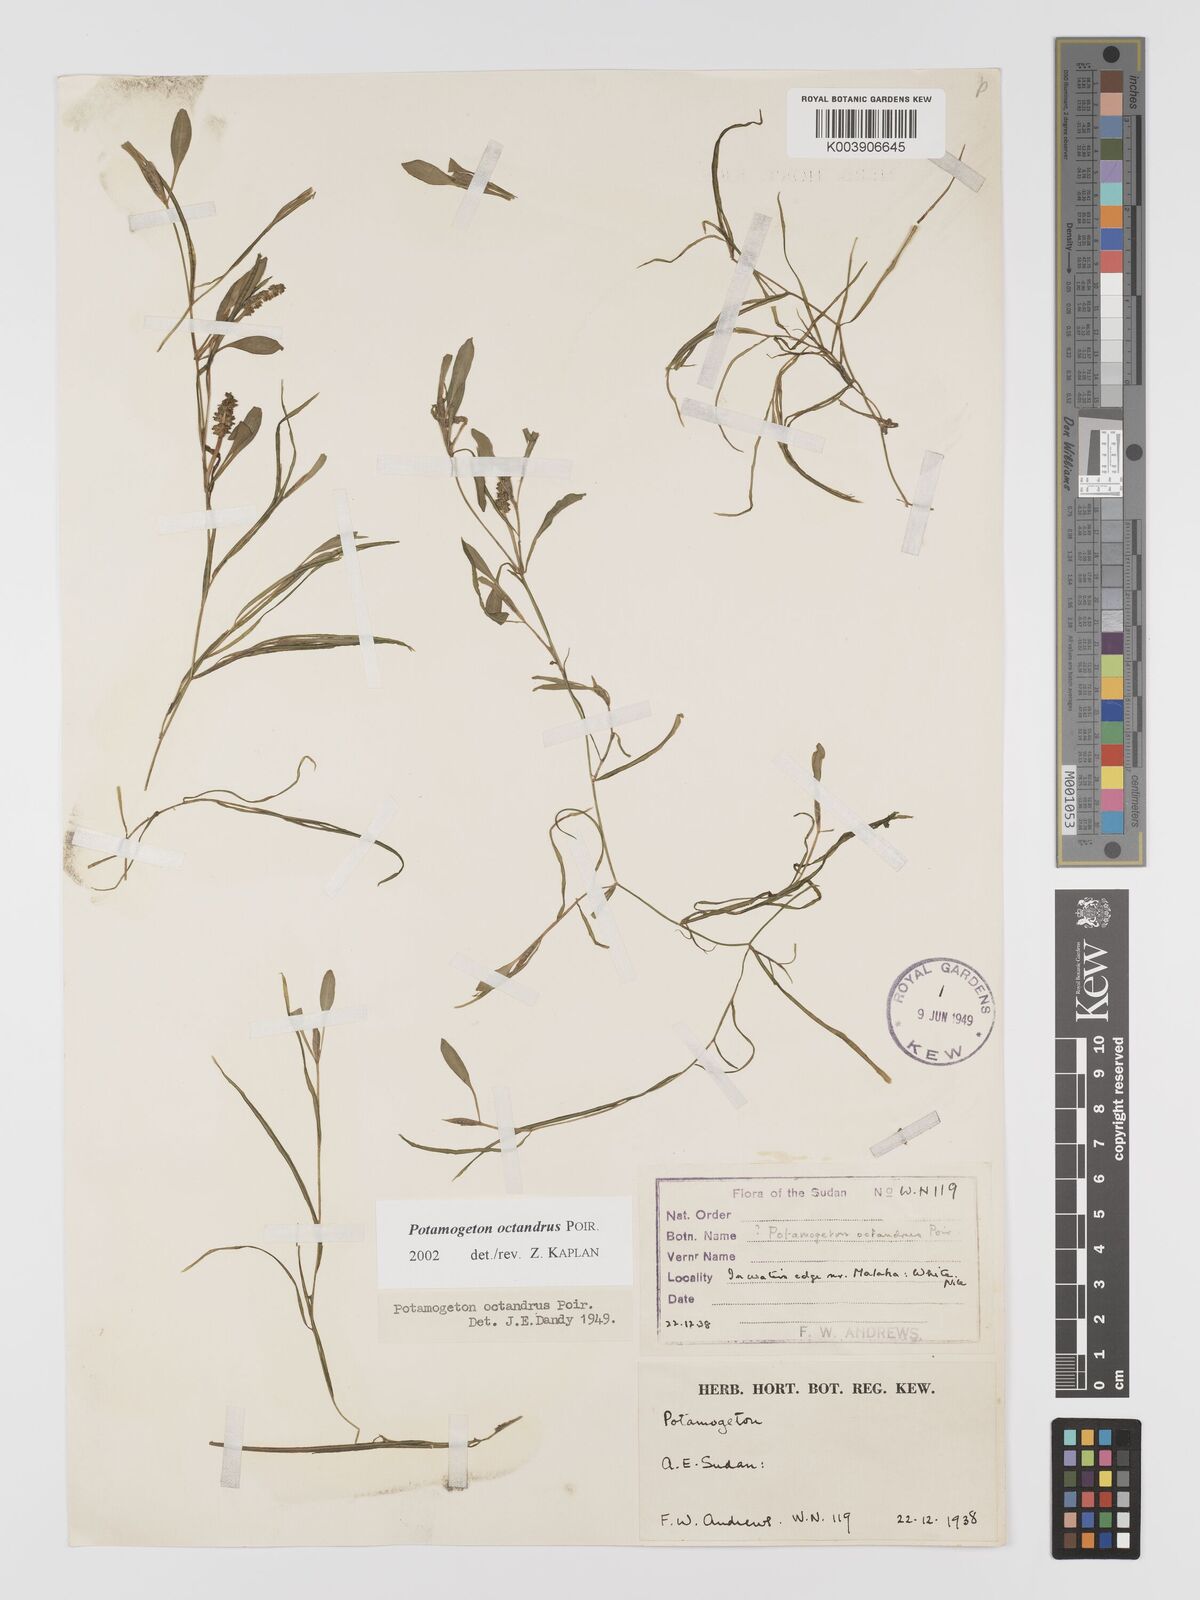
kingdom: Plantae
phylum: Tracheophyta
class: Liliopsida
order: Alismatales
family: Potamogetonaceae
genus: Potamogeton
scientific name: Potamogeton octandrus
